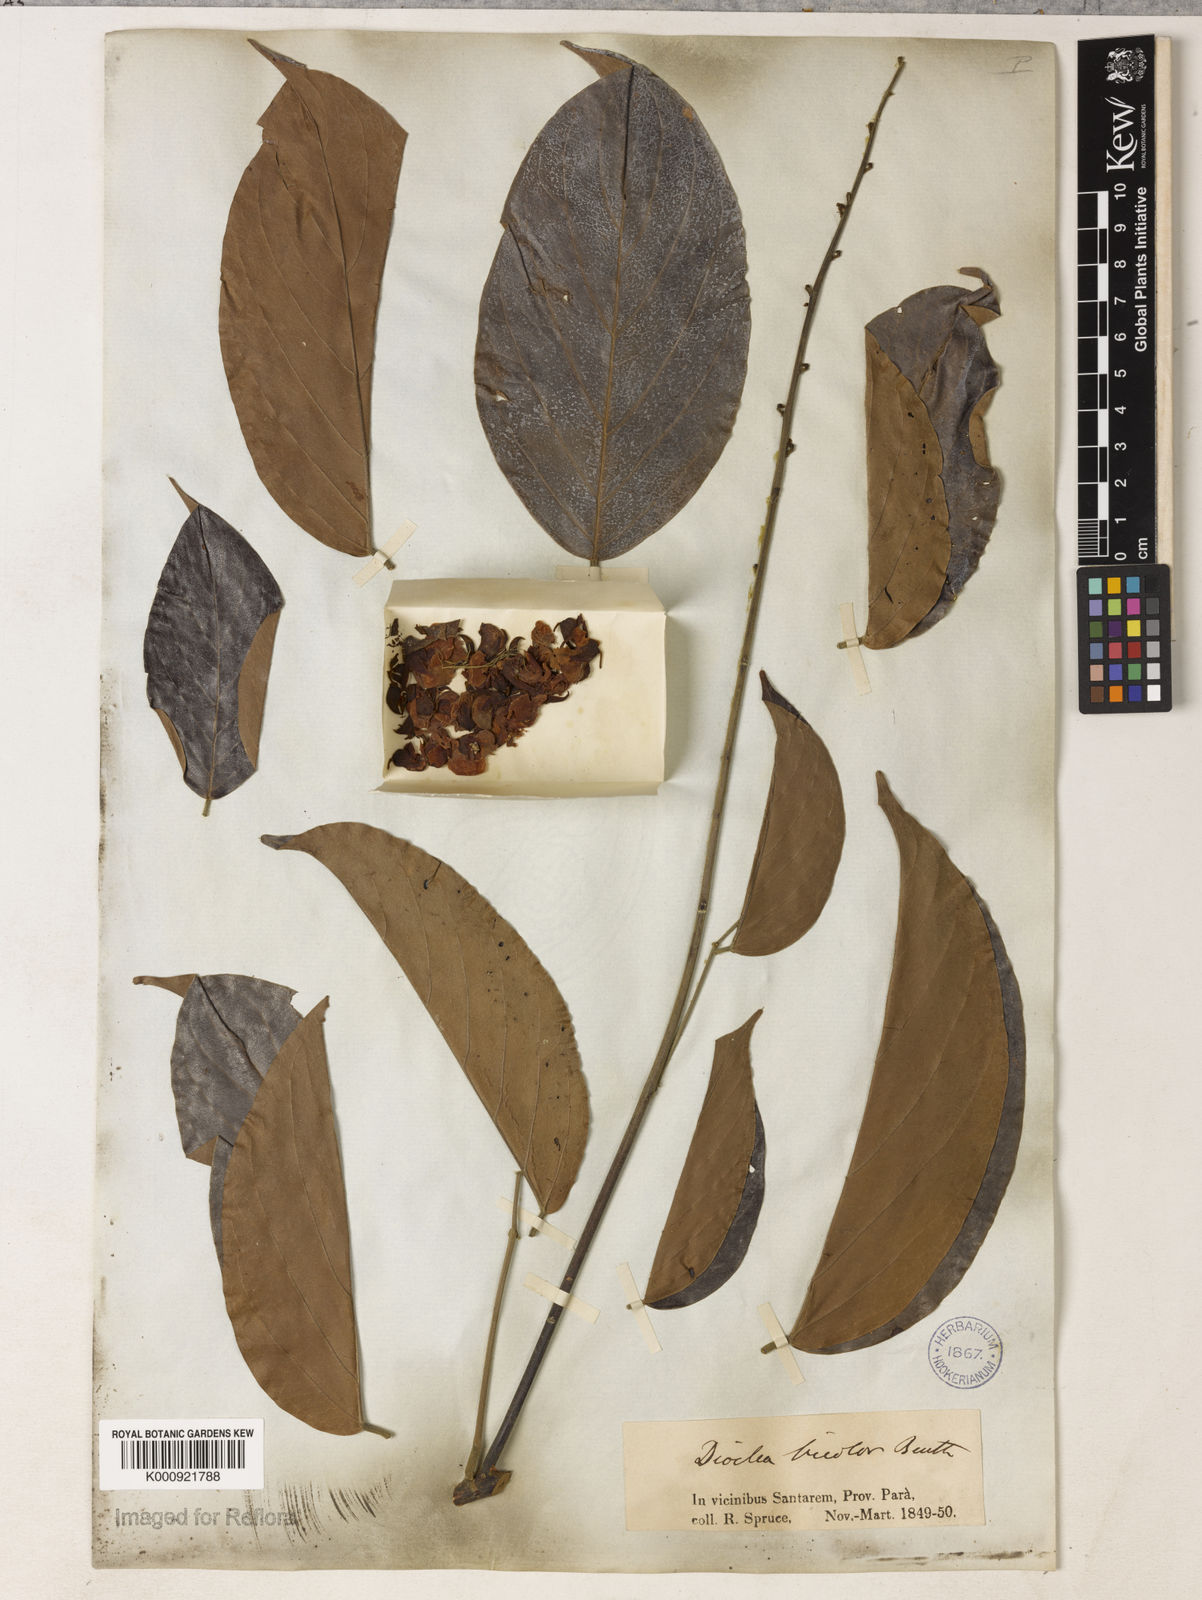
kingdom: Plantae
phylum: Tracheophyta
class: Magnoliopsida
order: Fabales
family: Fabaceae
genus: Macropsychanthus
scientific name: Macropsychanthus bicolor
